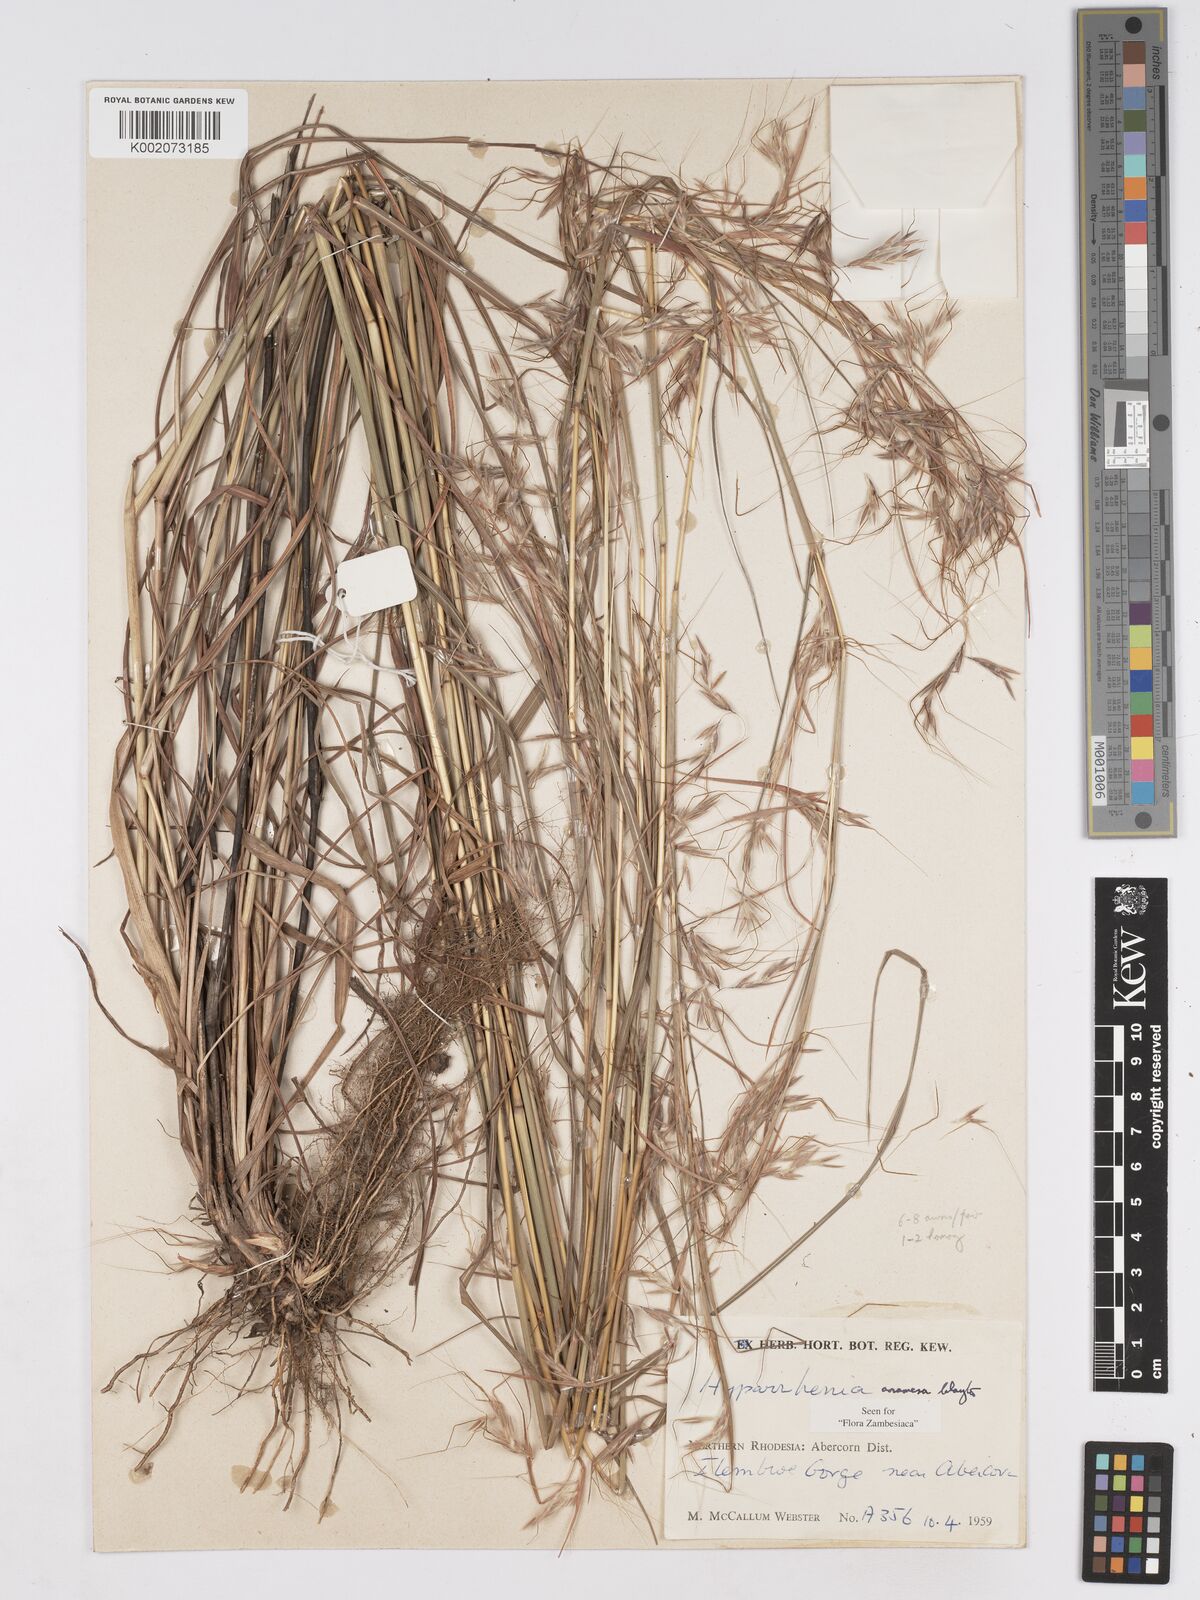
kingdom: Plantae
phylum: Tracheophyta
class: Liliopsida
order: Poales
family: Poaceae
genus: Hyparrhenia
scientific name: Hyparrhenia anamesa
